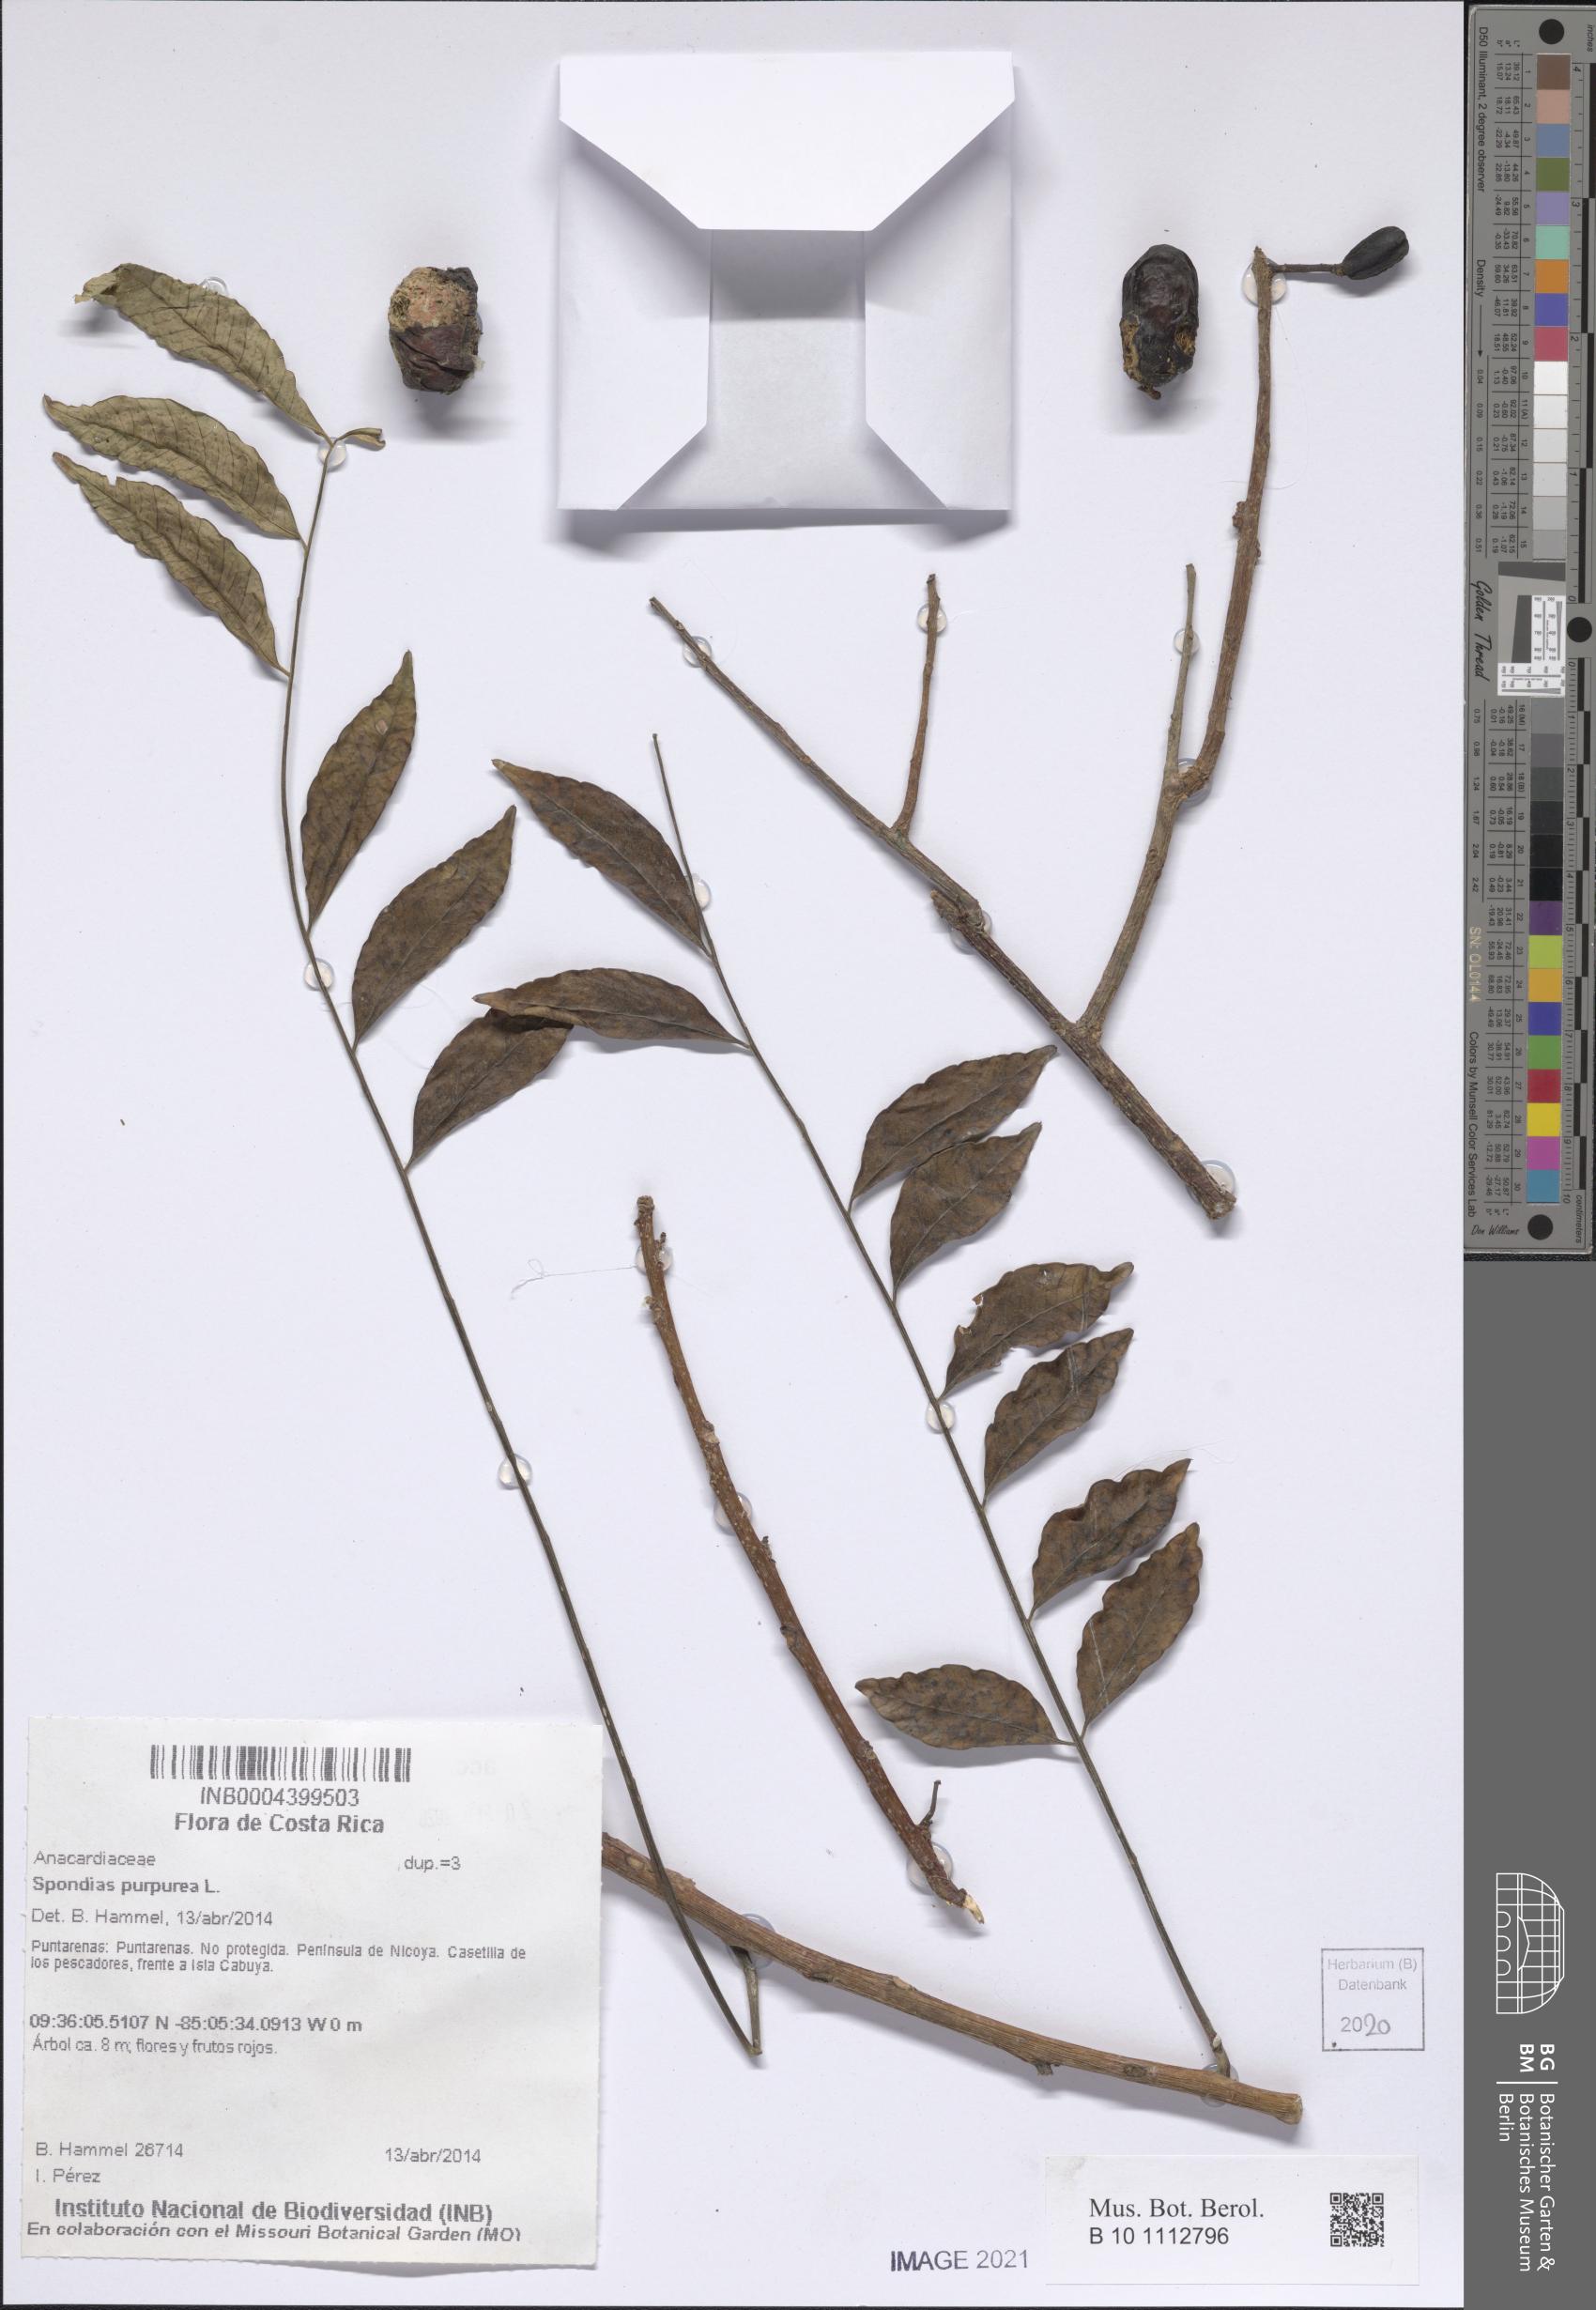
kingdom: Plantae
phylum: Tracheophyta
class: Magnoliopsida
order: Sapindales
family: Anacardiaceae
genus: Spondias
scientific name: Spondias purpurea
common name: Purple mombin
